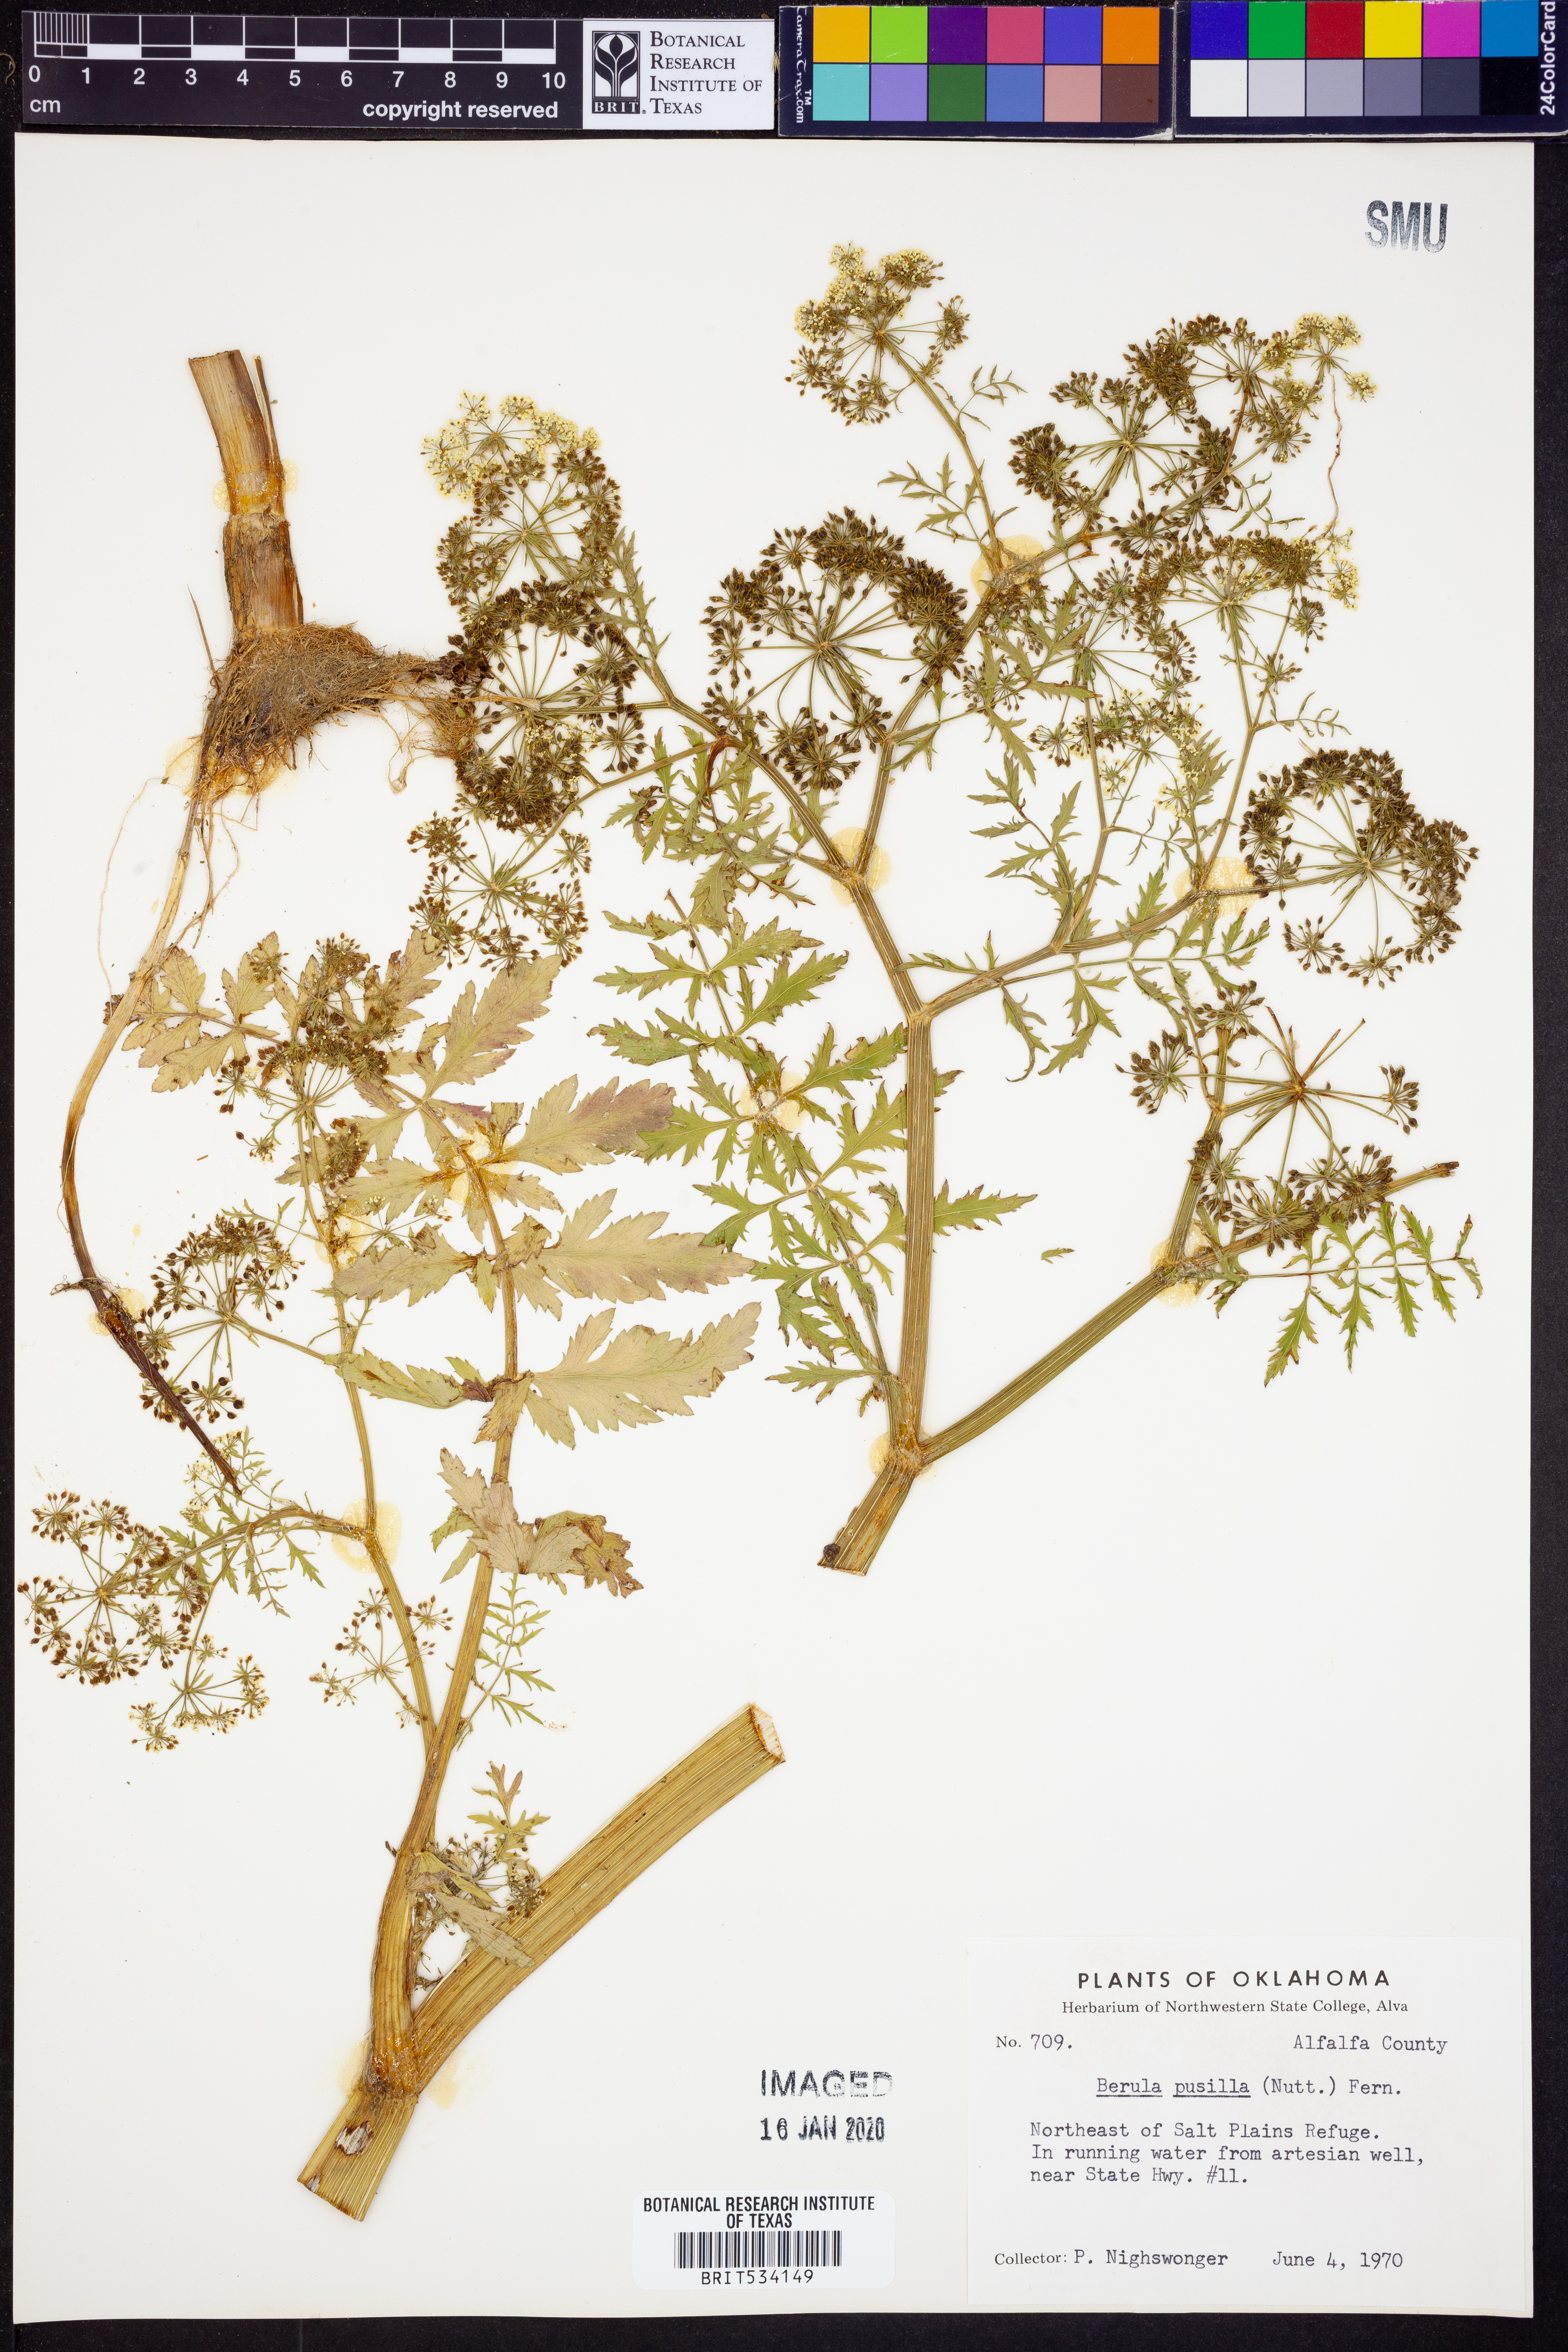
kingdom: Plantae
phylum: Tracheophyta
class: Magnoliopsida
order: Apiales
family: Apiaceae
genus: Berula
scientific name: Berula erecta
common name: Lesser water-parsnip
